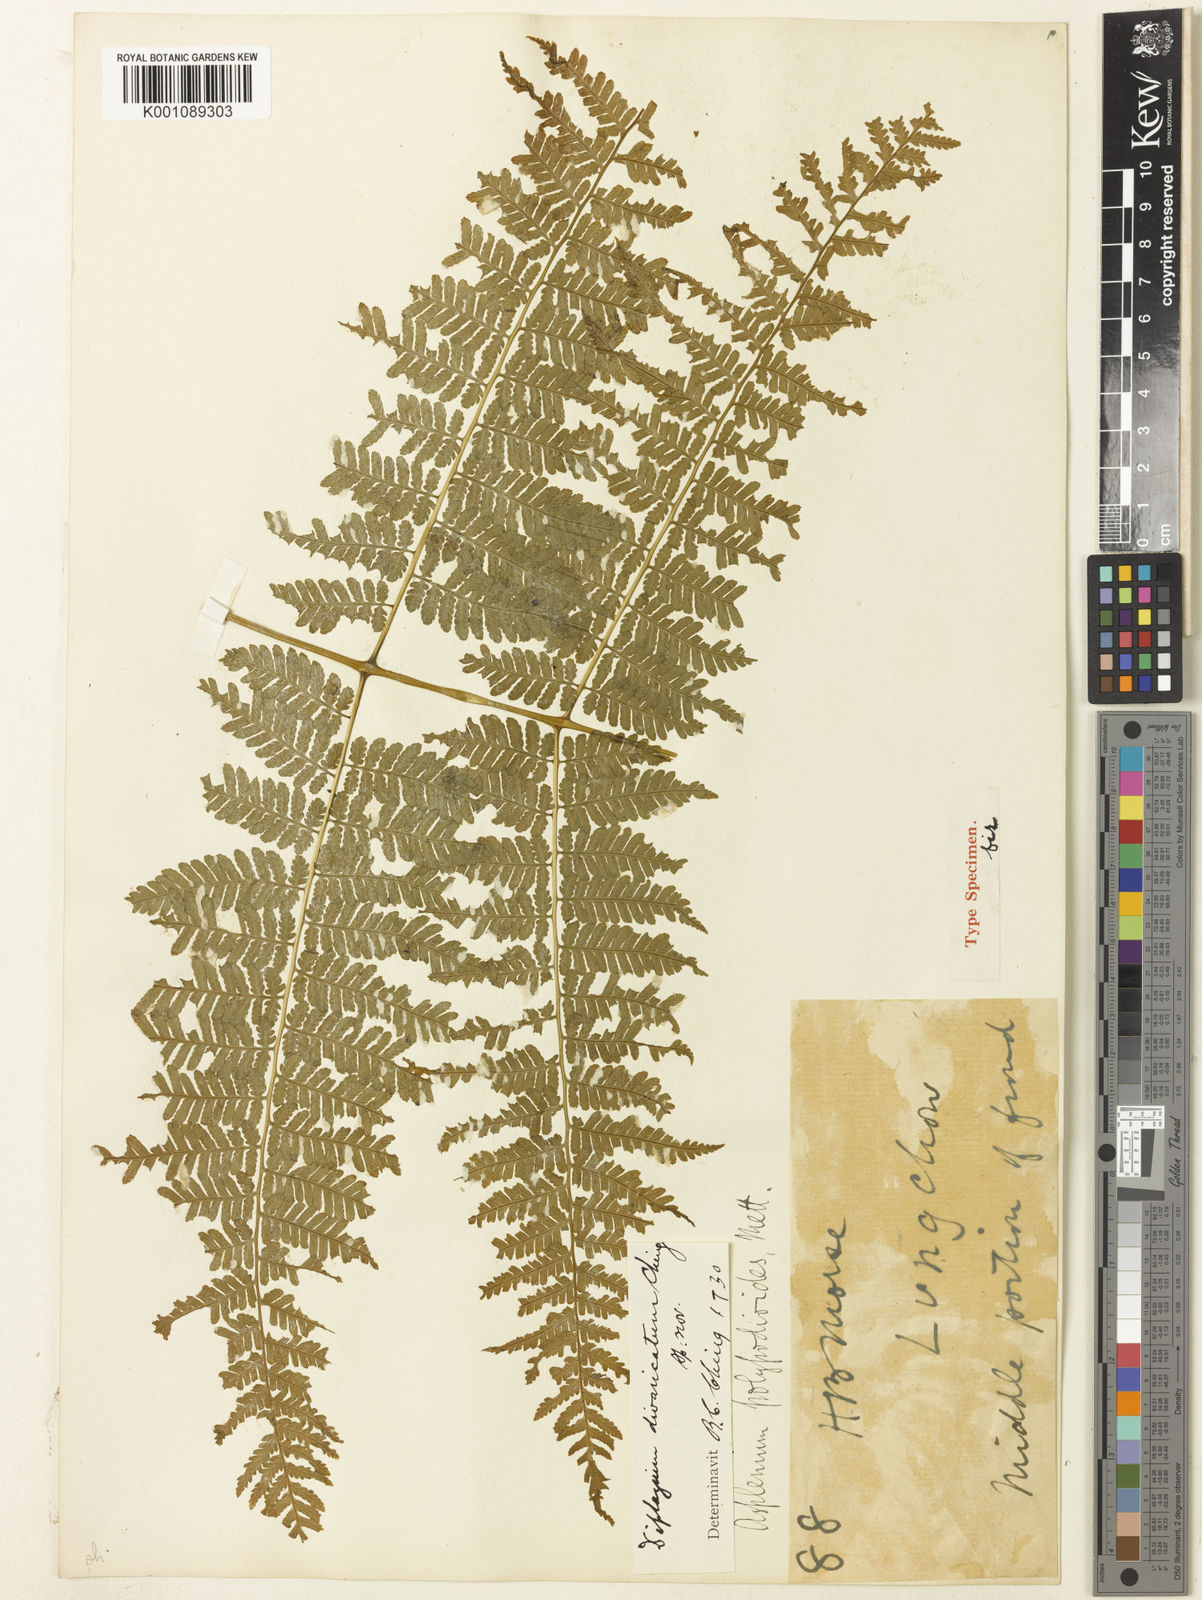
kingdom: Plantae
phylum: Tracheophyta
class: Polypodiopsida
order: Polypodiales
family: Athyriaceae
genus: Diplazium
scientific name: Diplazium spectabile
